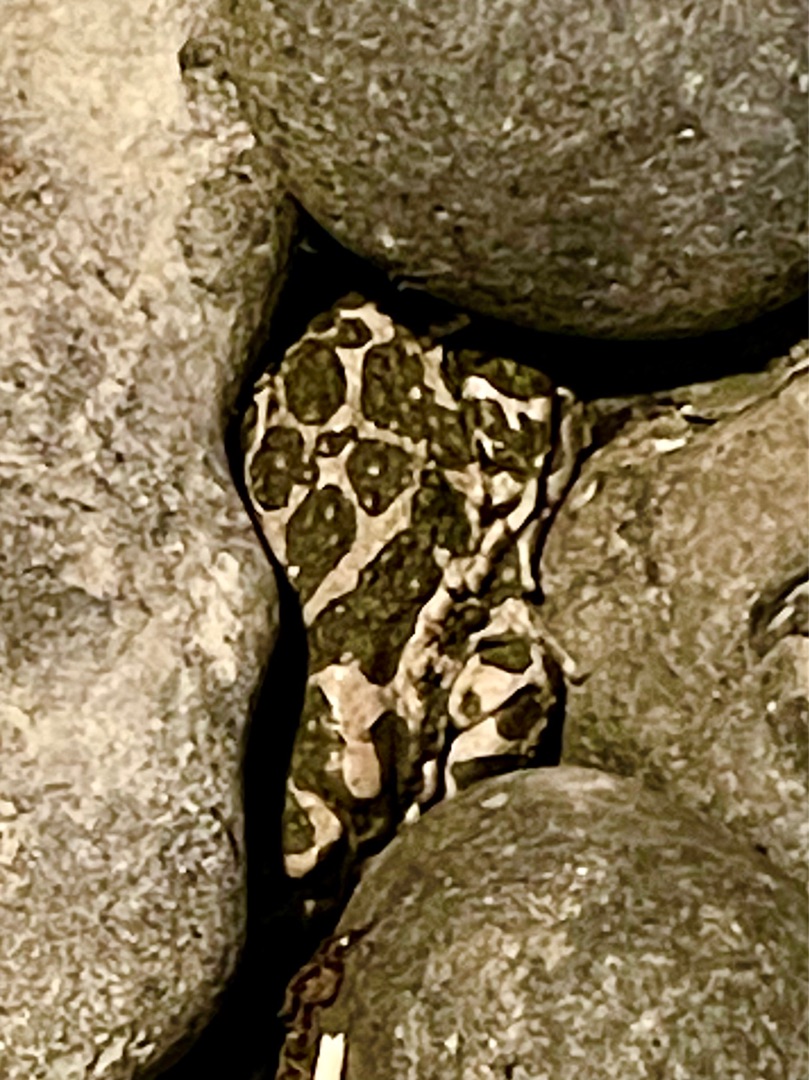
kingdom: Animalia
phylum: Chordata
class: Amphibia
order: Anura
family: Bufonidae
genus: Bufotes
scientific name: Bufotes viridis
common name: Grønbroget tudse
